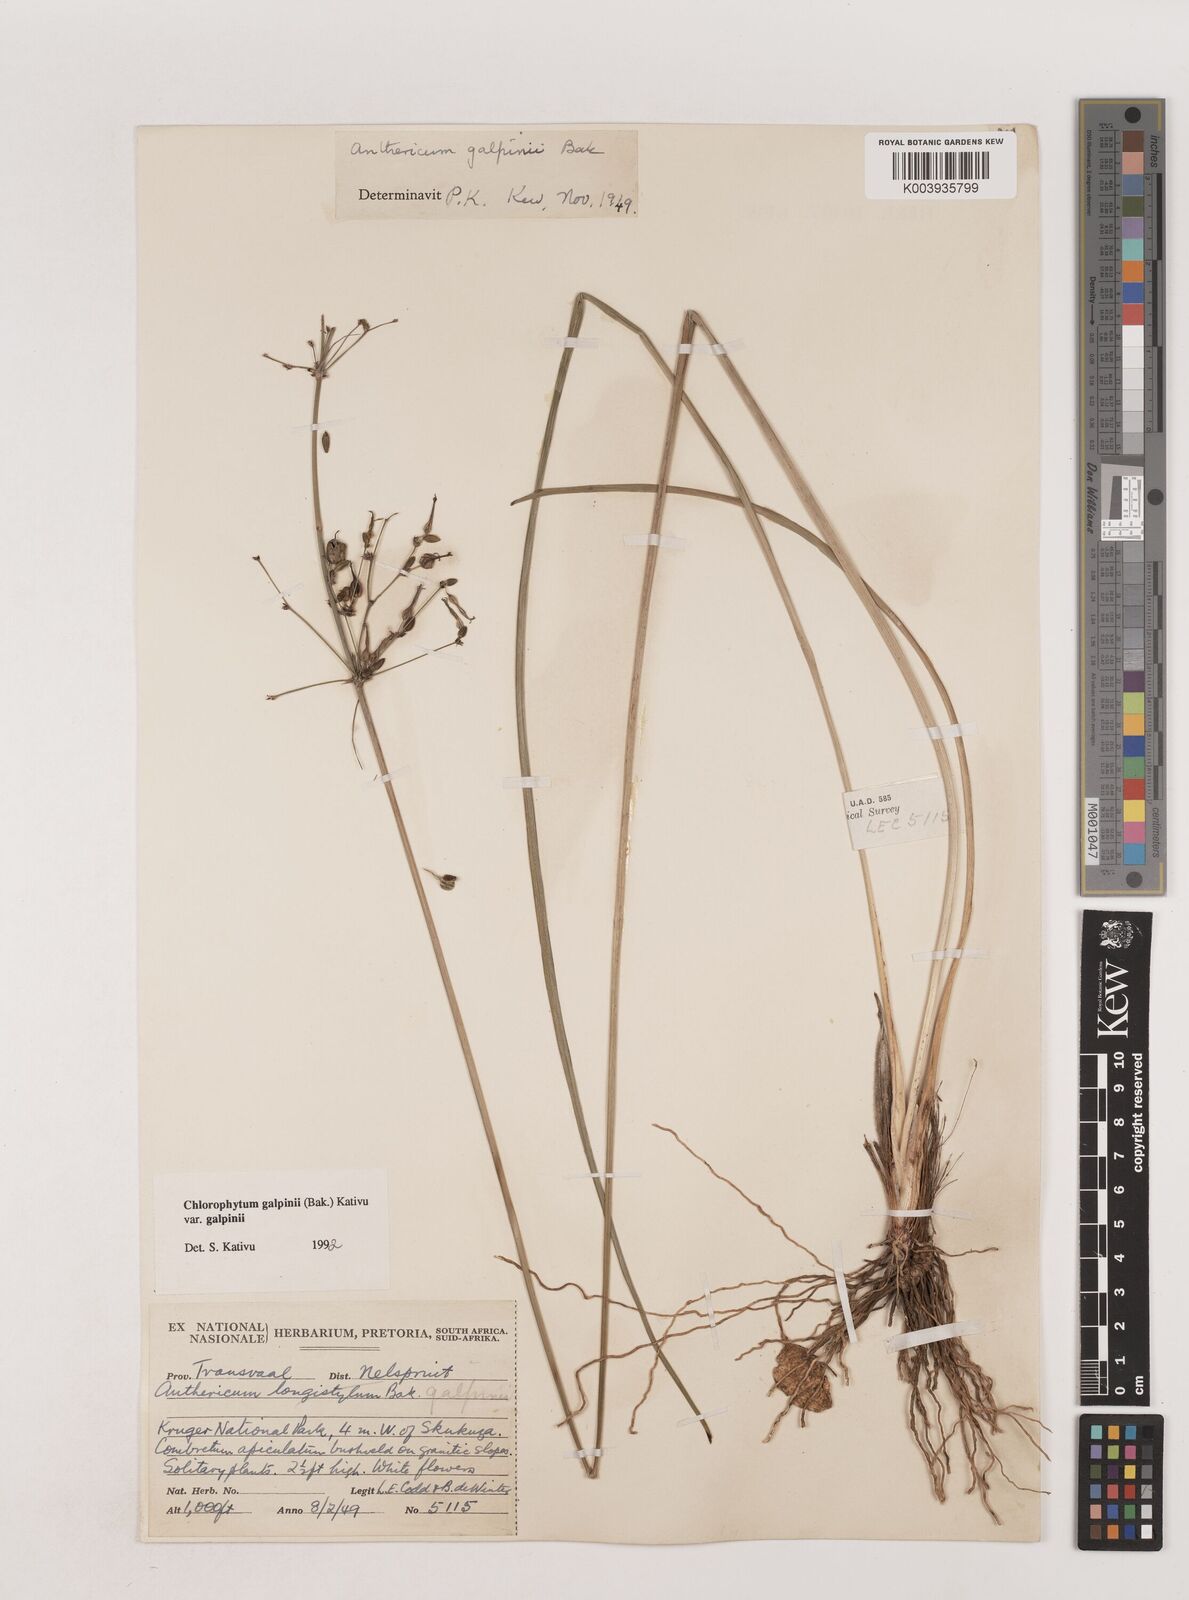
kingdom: Plantae
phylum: Tracheophyta
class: Liliopsida
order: Asparagales
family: Asparagaceae
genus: Chlorophytum
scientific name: Chlorophytum galpinii
